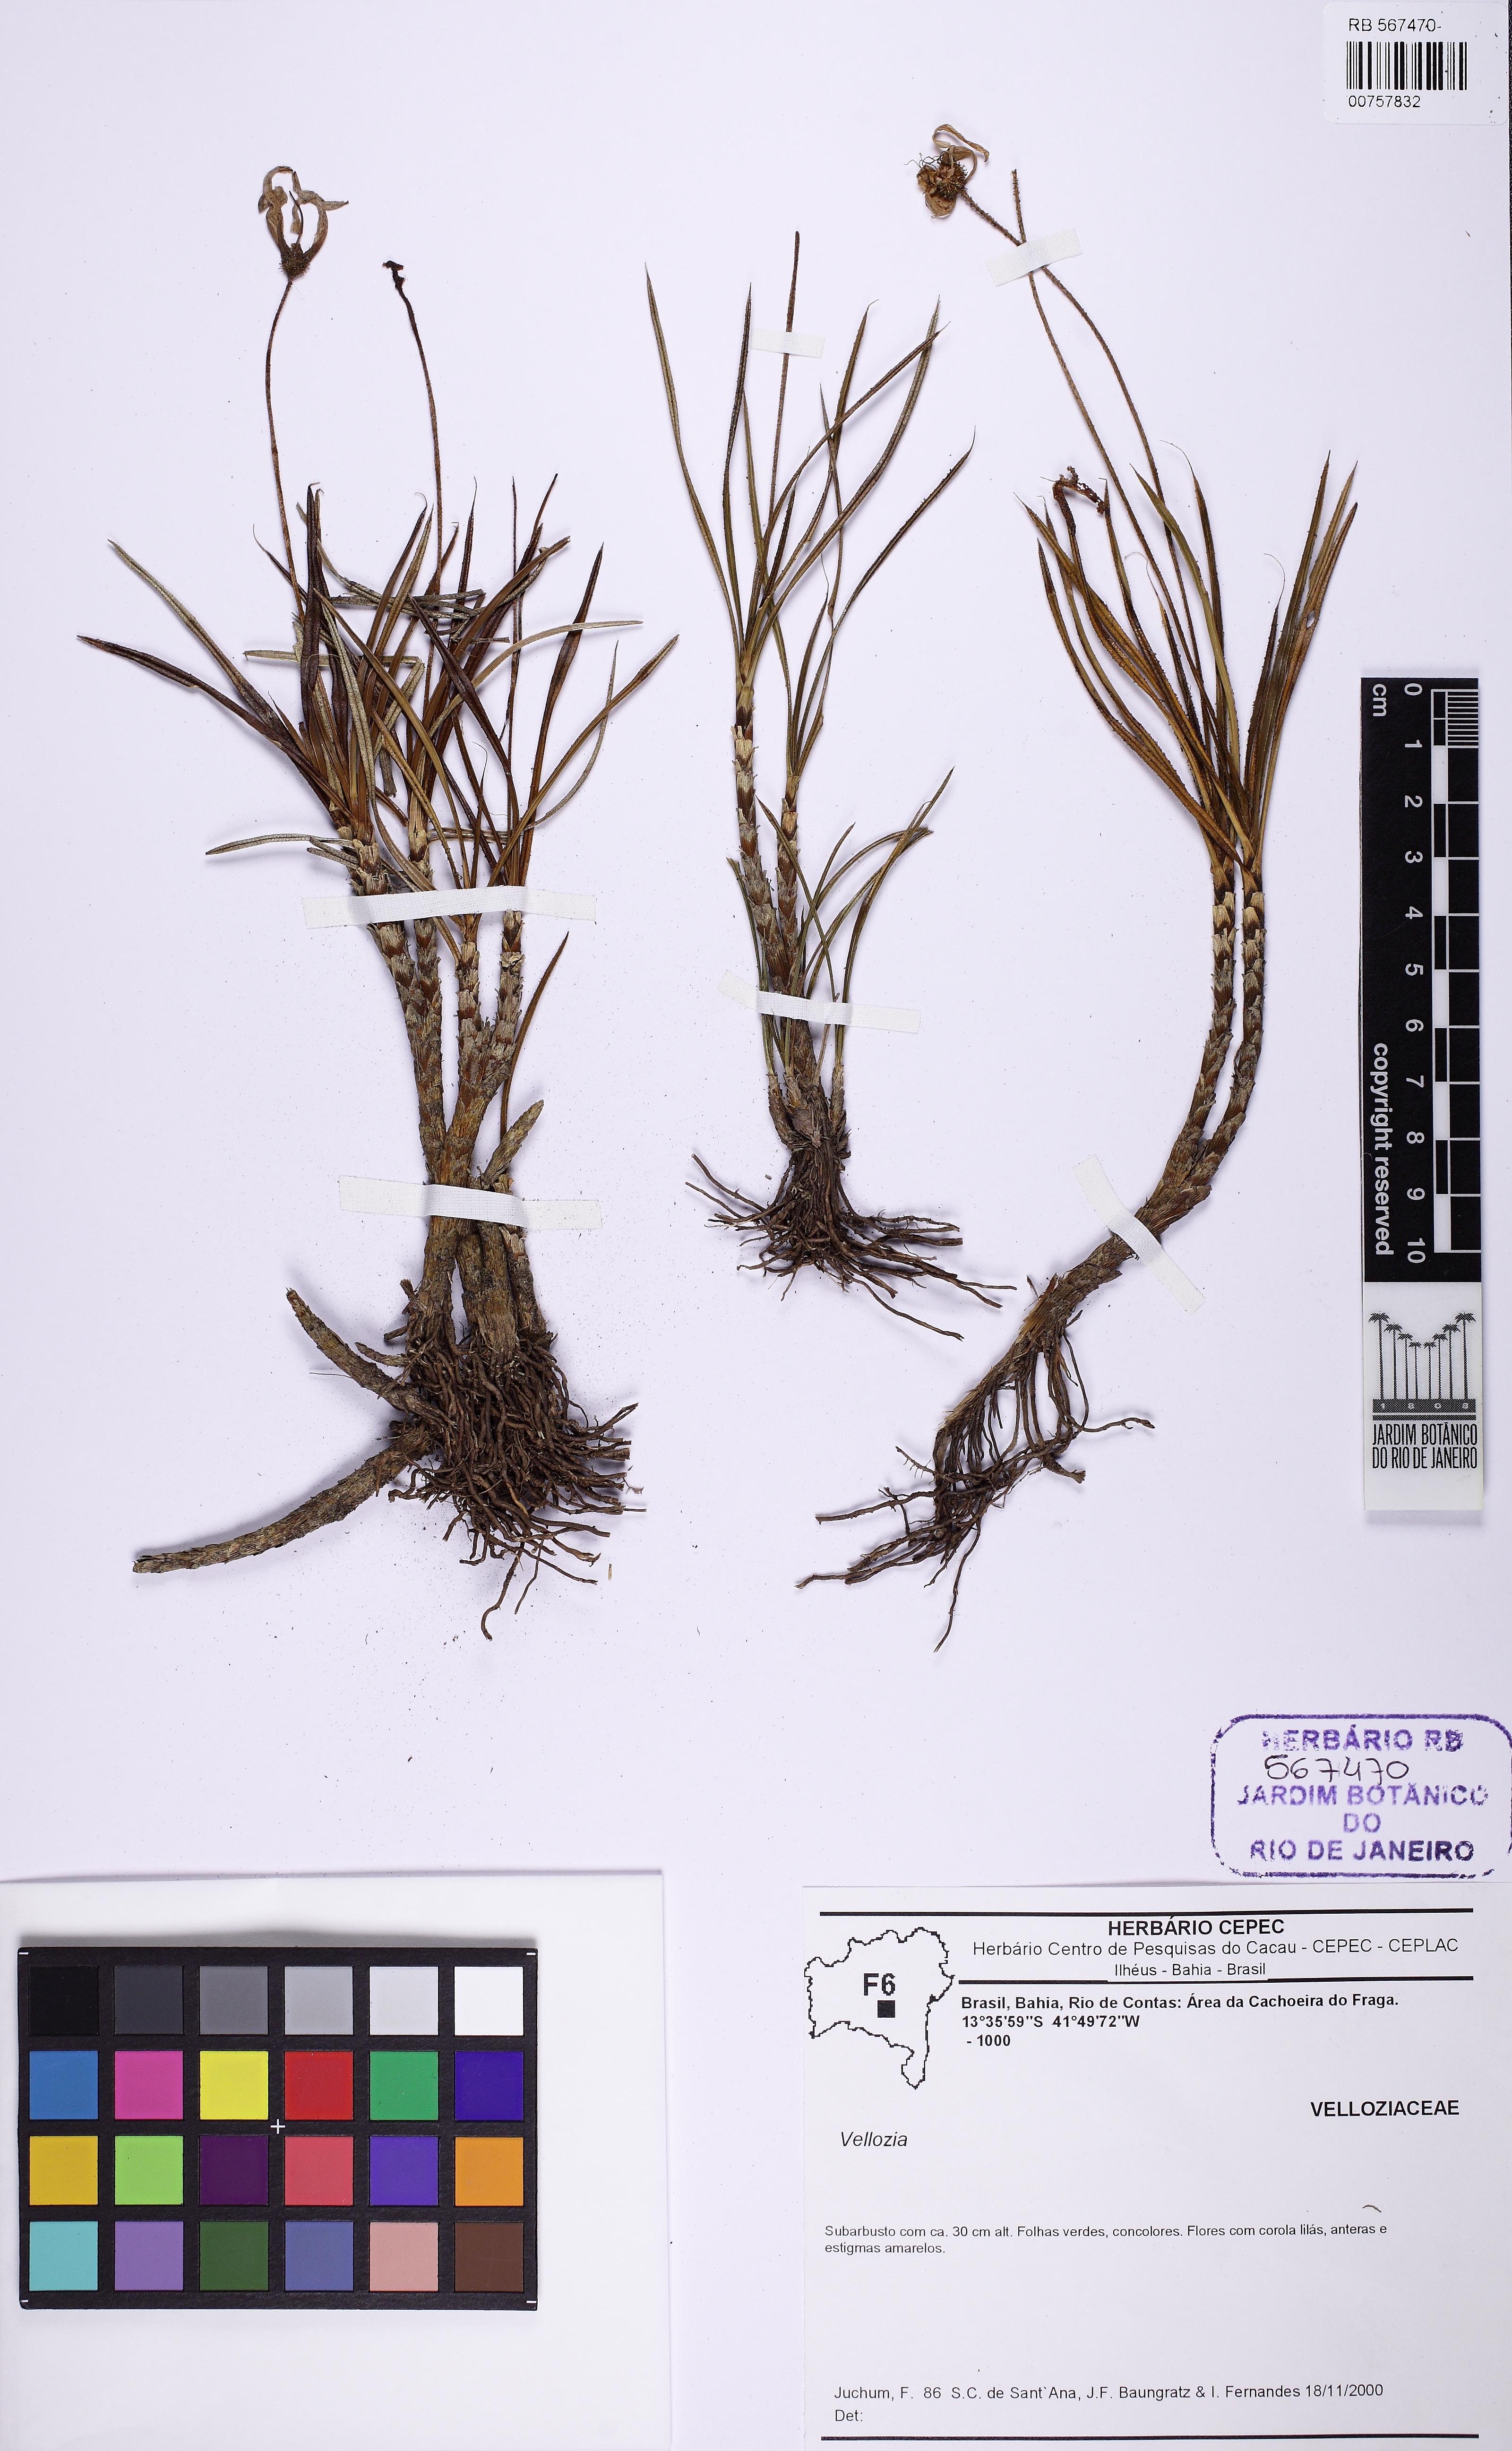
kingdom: Plantae
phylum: Tracheophyta
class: Liliopsida
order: Pandanales
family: Velloziaceae
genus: Vellozia
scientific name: Vellozia caudata
